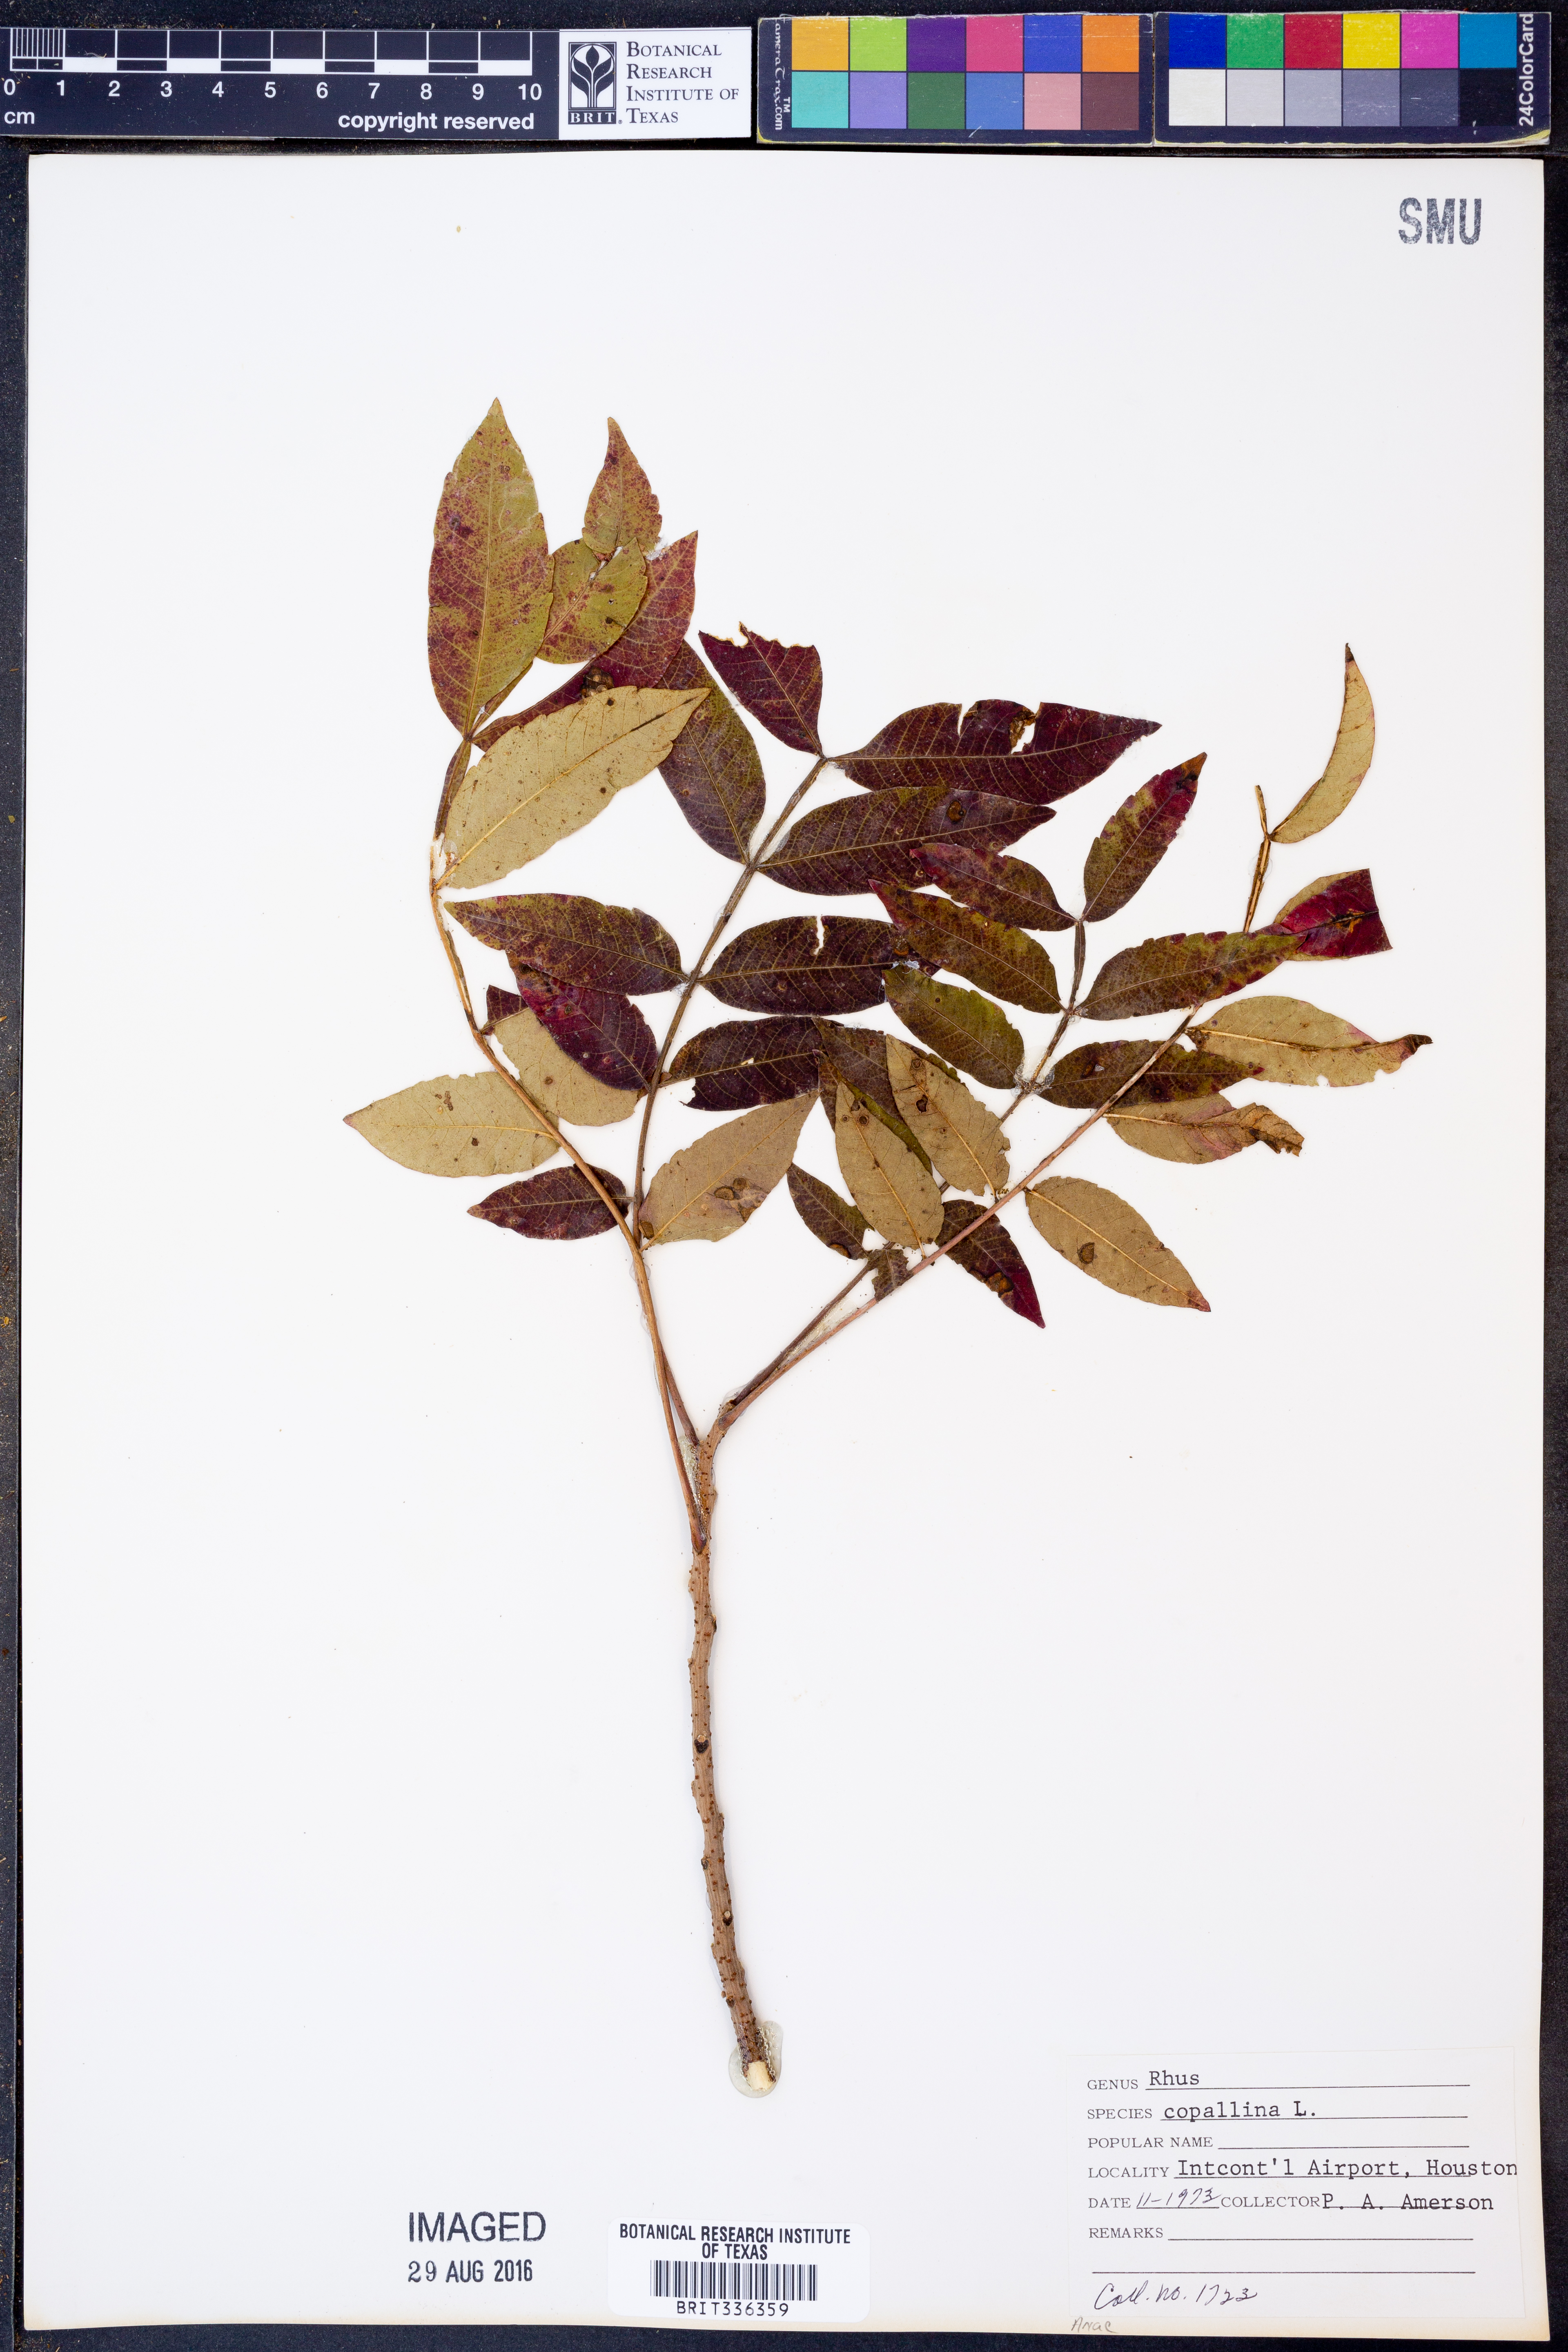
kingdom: Plantae
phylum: Tracheophyta
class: Magnoliopsida
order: Sapindales
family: Anacardiaceae
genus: Rhus
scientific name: Rhus copallina
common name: Shining sumac
